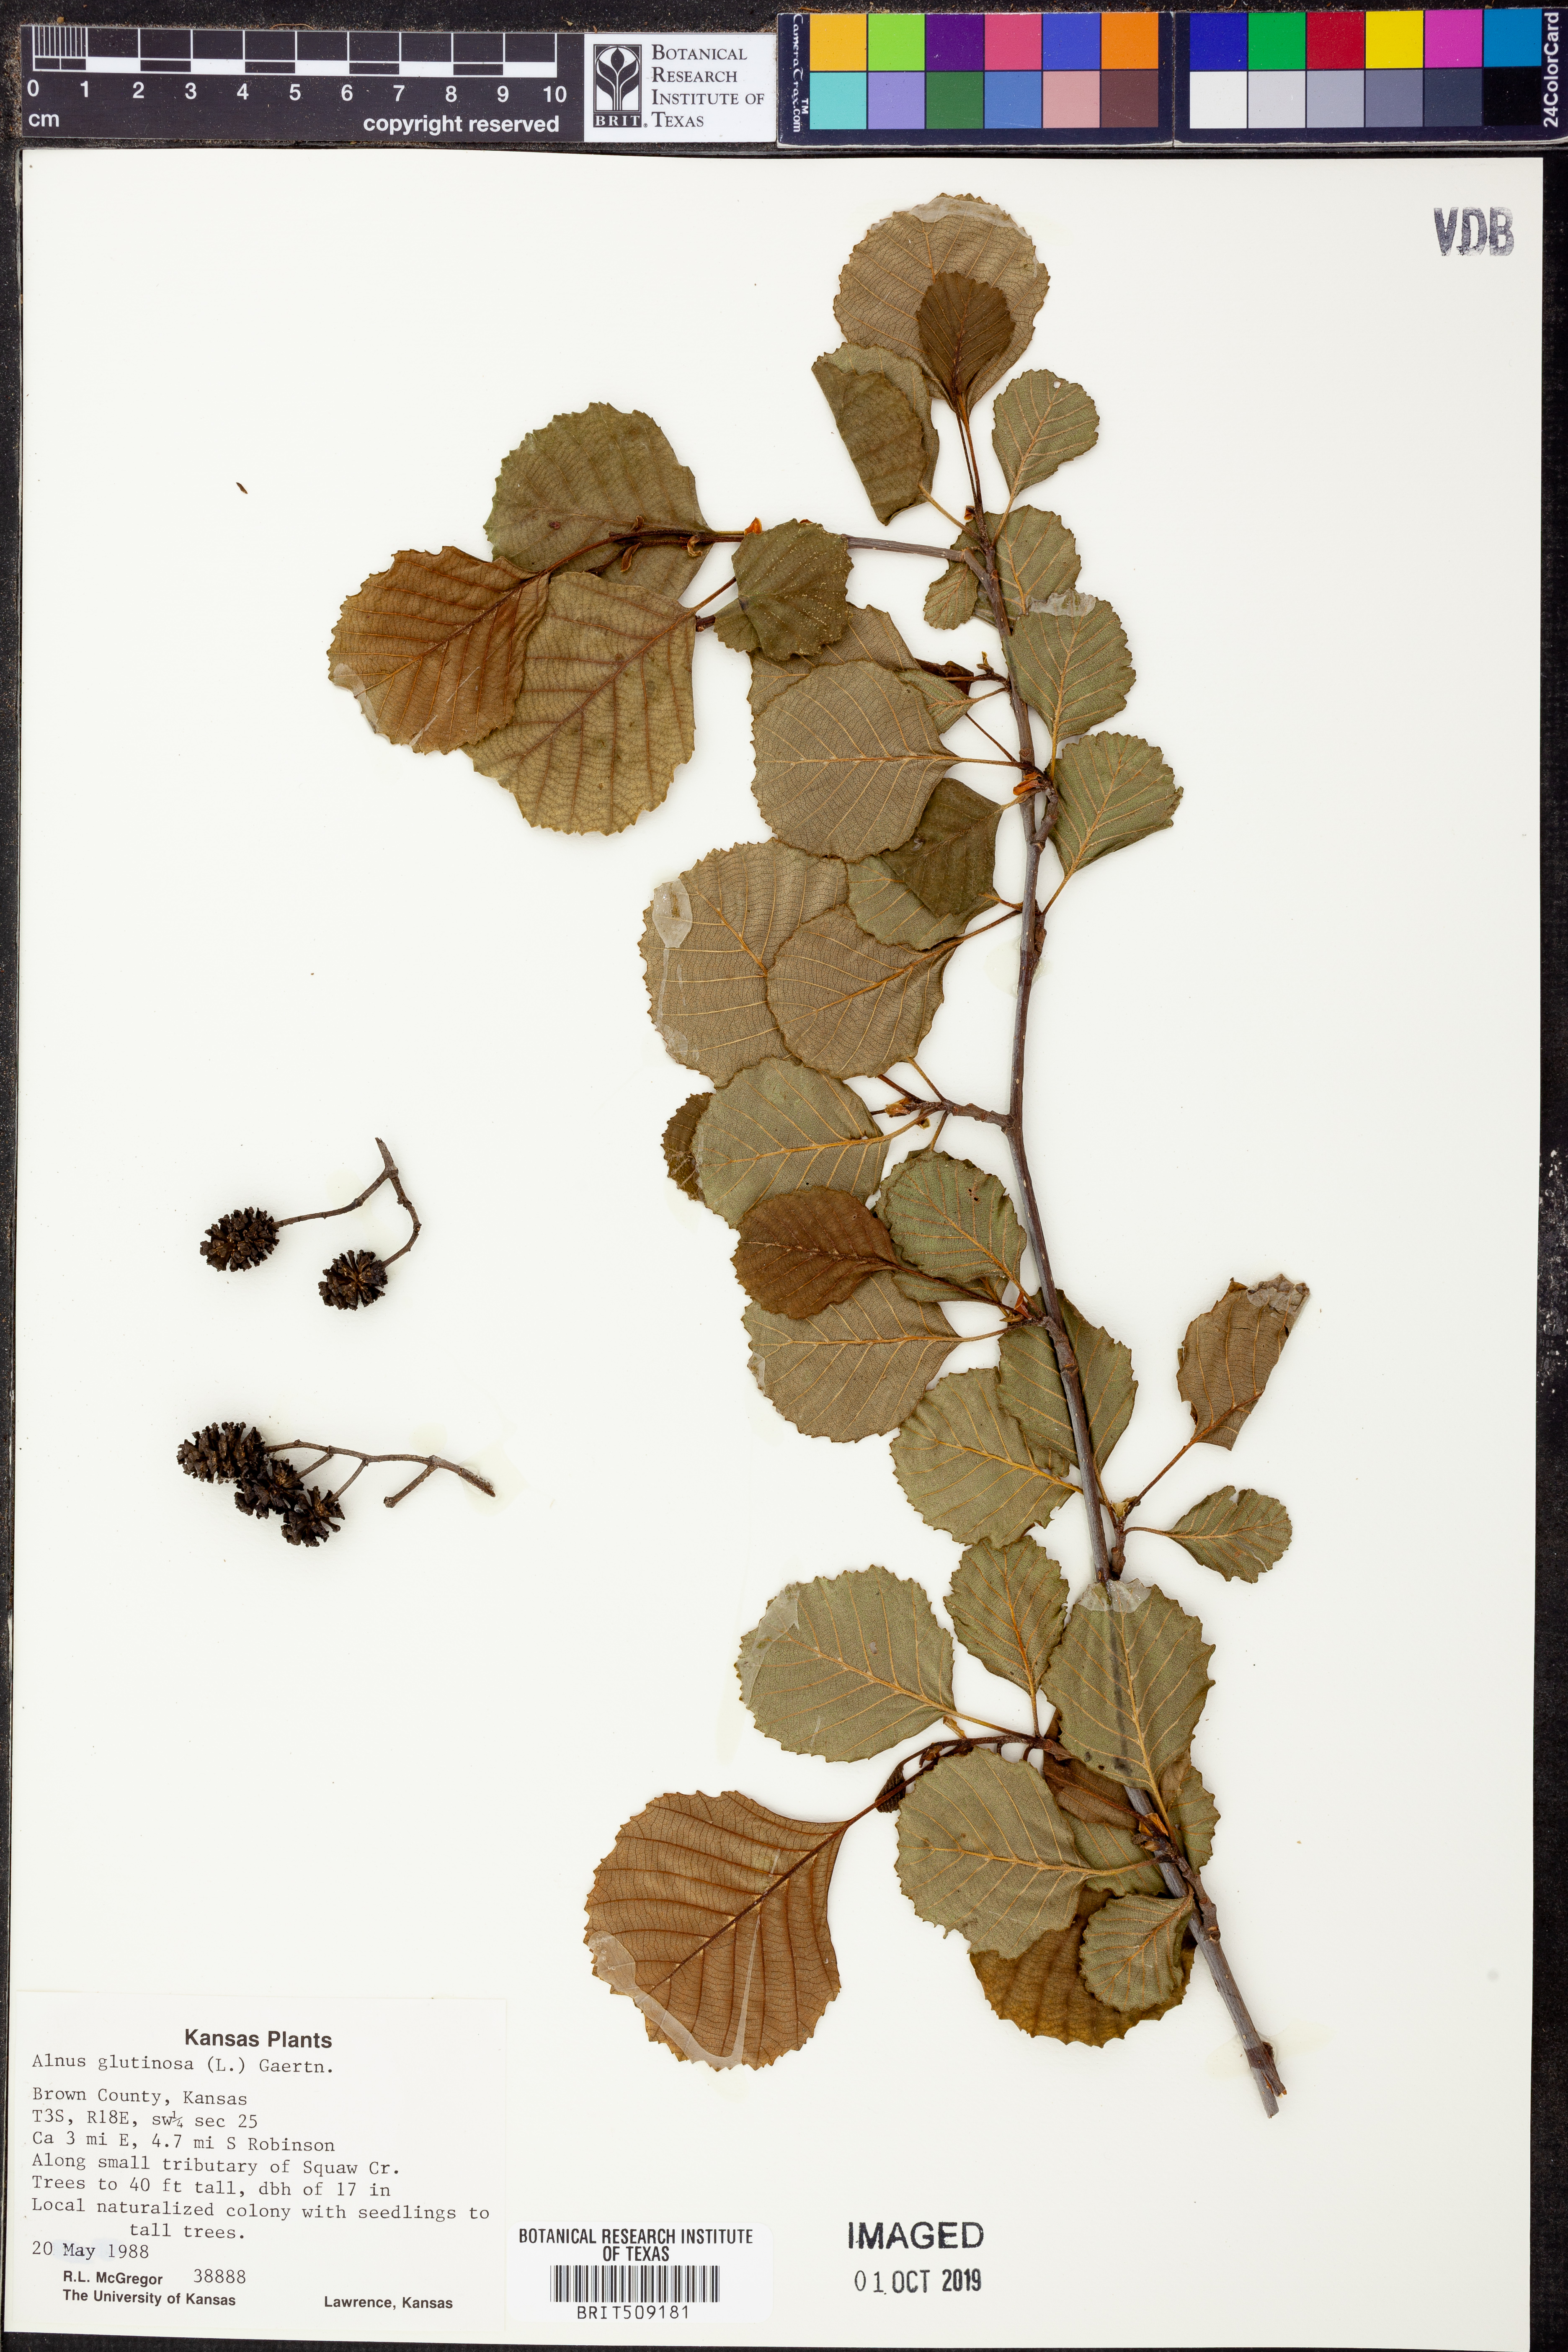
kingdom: Plantae
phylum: Tracheophyta
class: Magnoliopsida
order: Fagales
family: Betulaceae
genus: Alnus
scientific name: Alnus glutinosa
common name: Black alder
